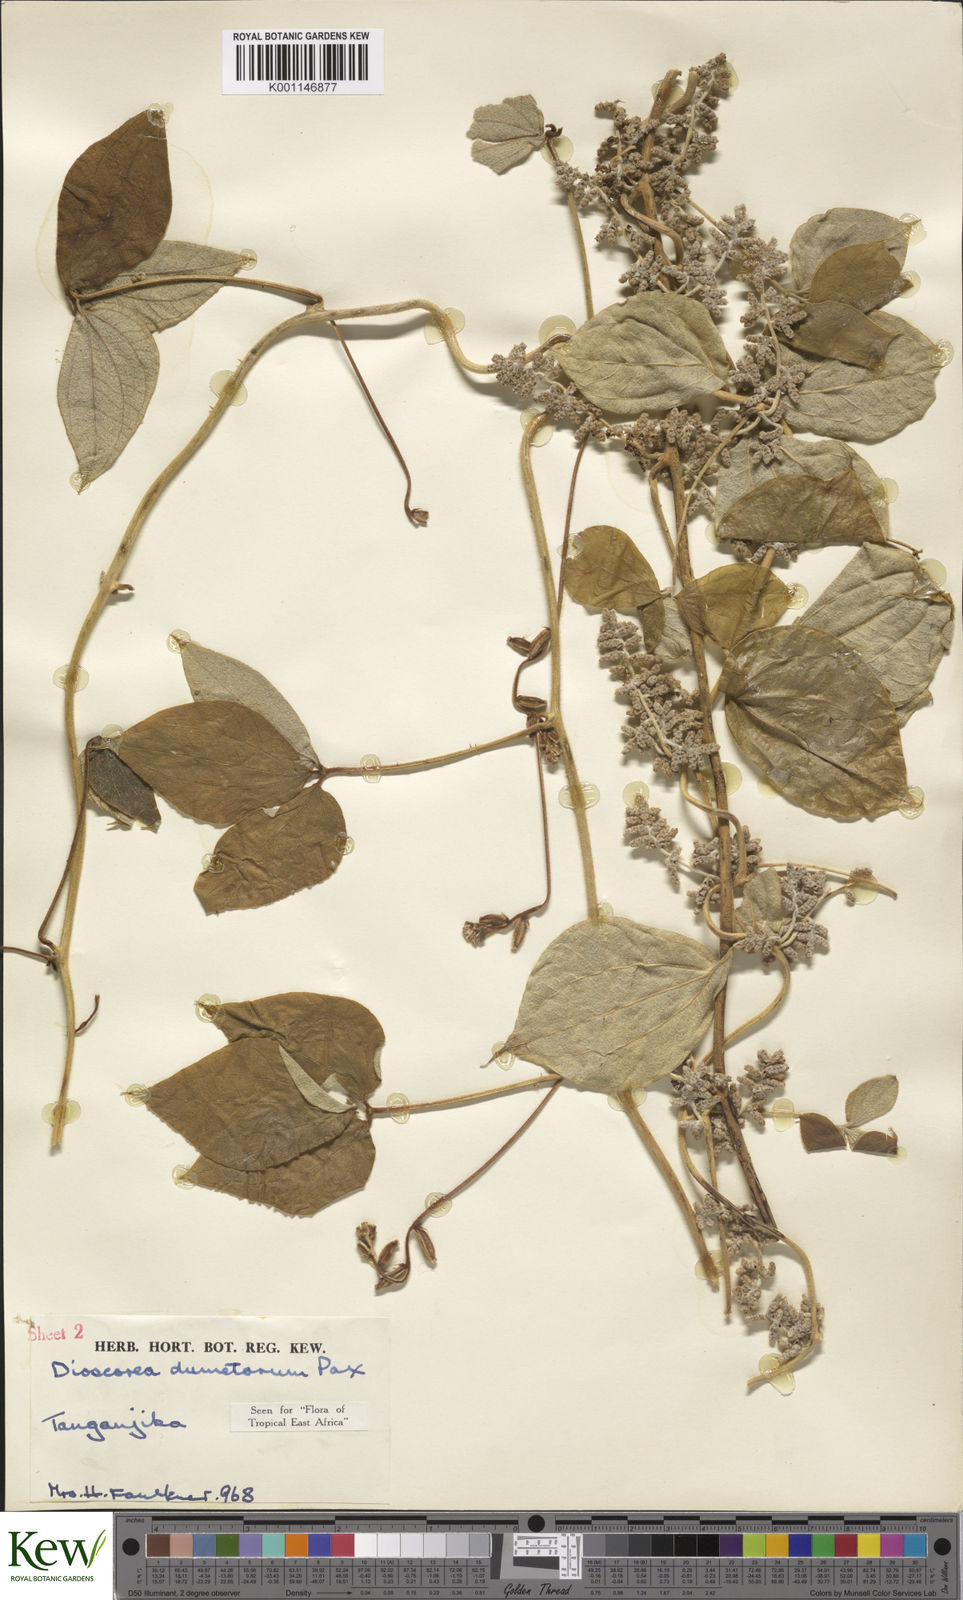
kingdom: Plantae
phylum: Tracheophyta
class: Liliopsida
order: Dioscoreales
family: Dioscoreaceae
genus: Dioscorea
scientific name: Dioscorea dumetorum
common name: African bitter yam
